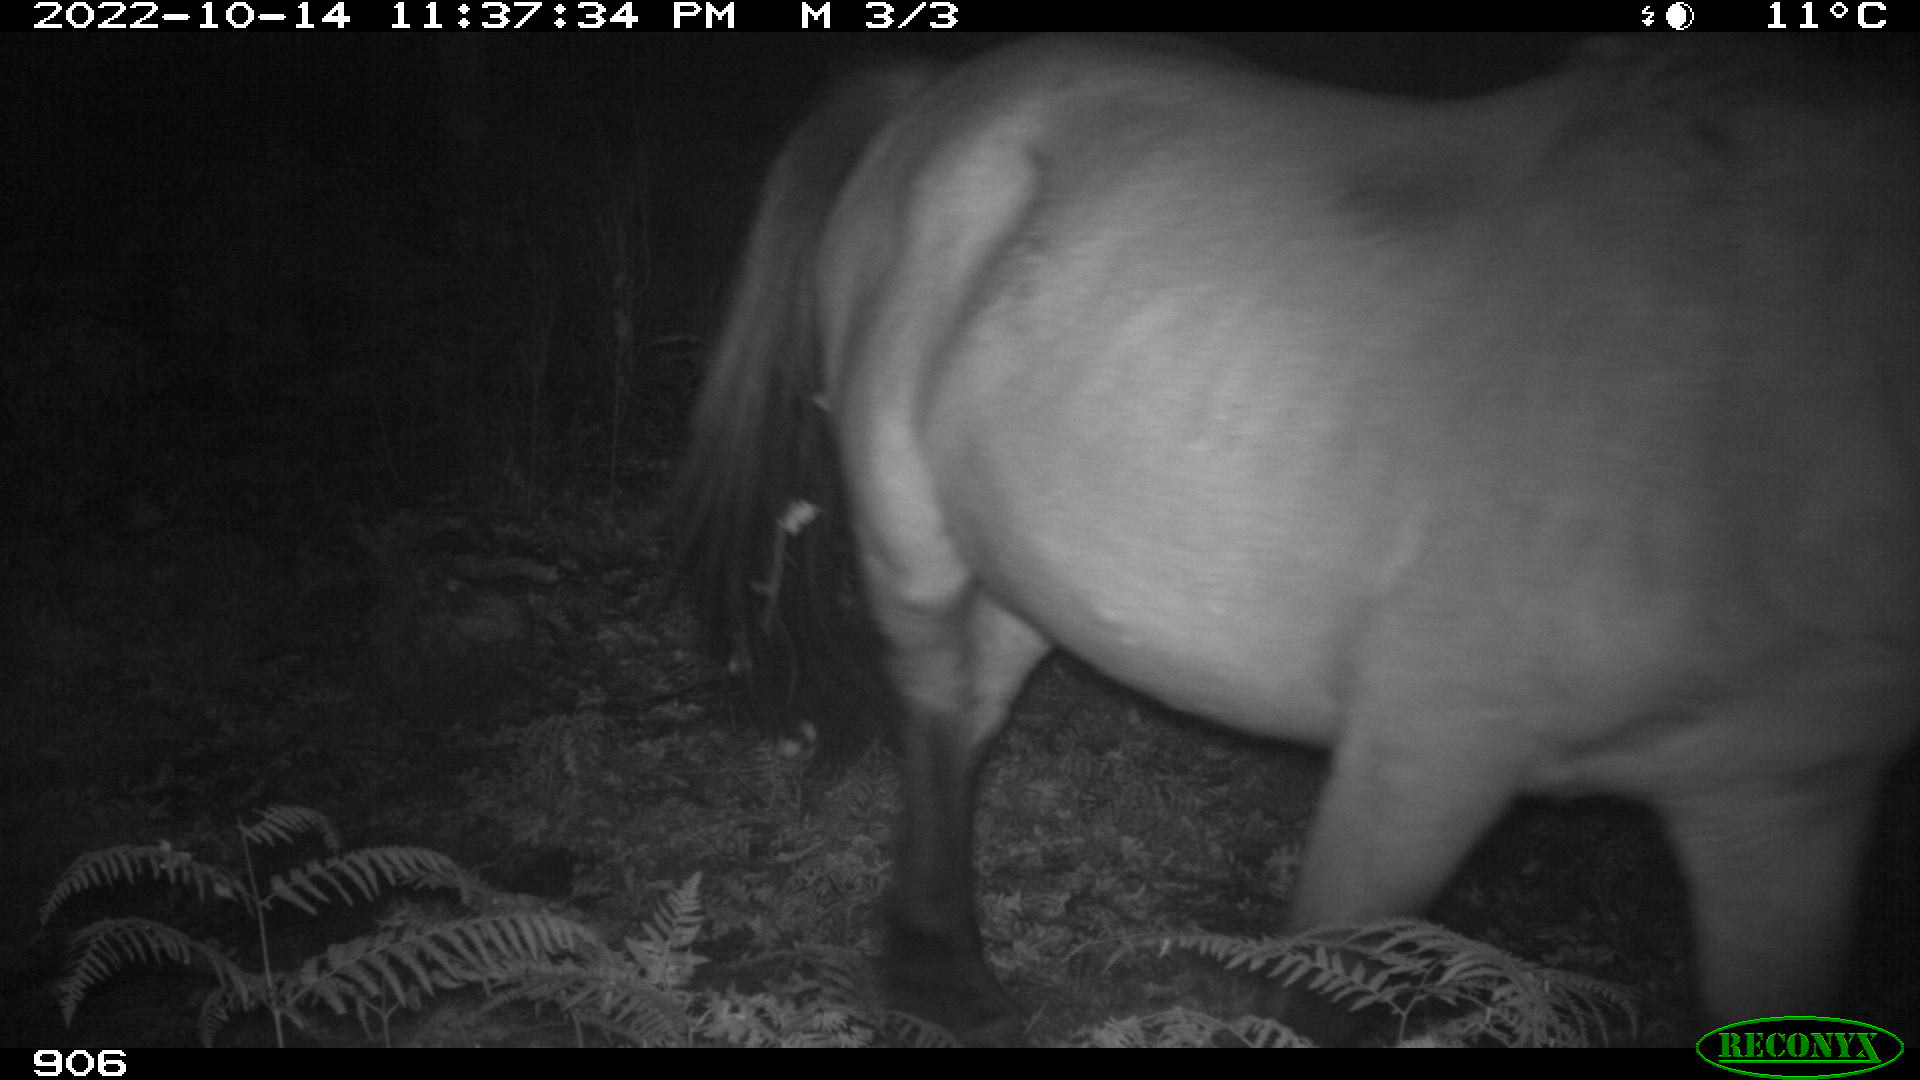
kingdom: Animalia
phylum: Chordata
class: Mammalia
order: Perissodactyla
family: Equidae
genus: Equus
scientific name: Equus caballus
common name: Horse
